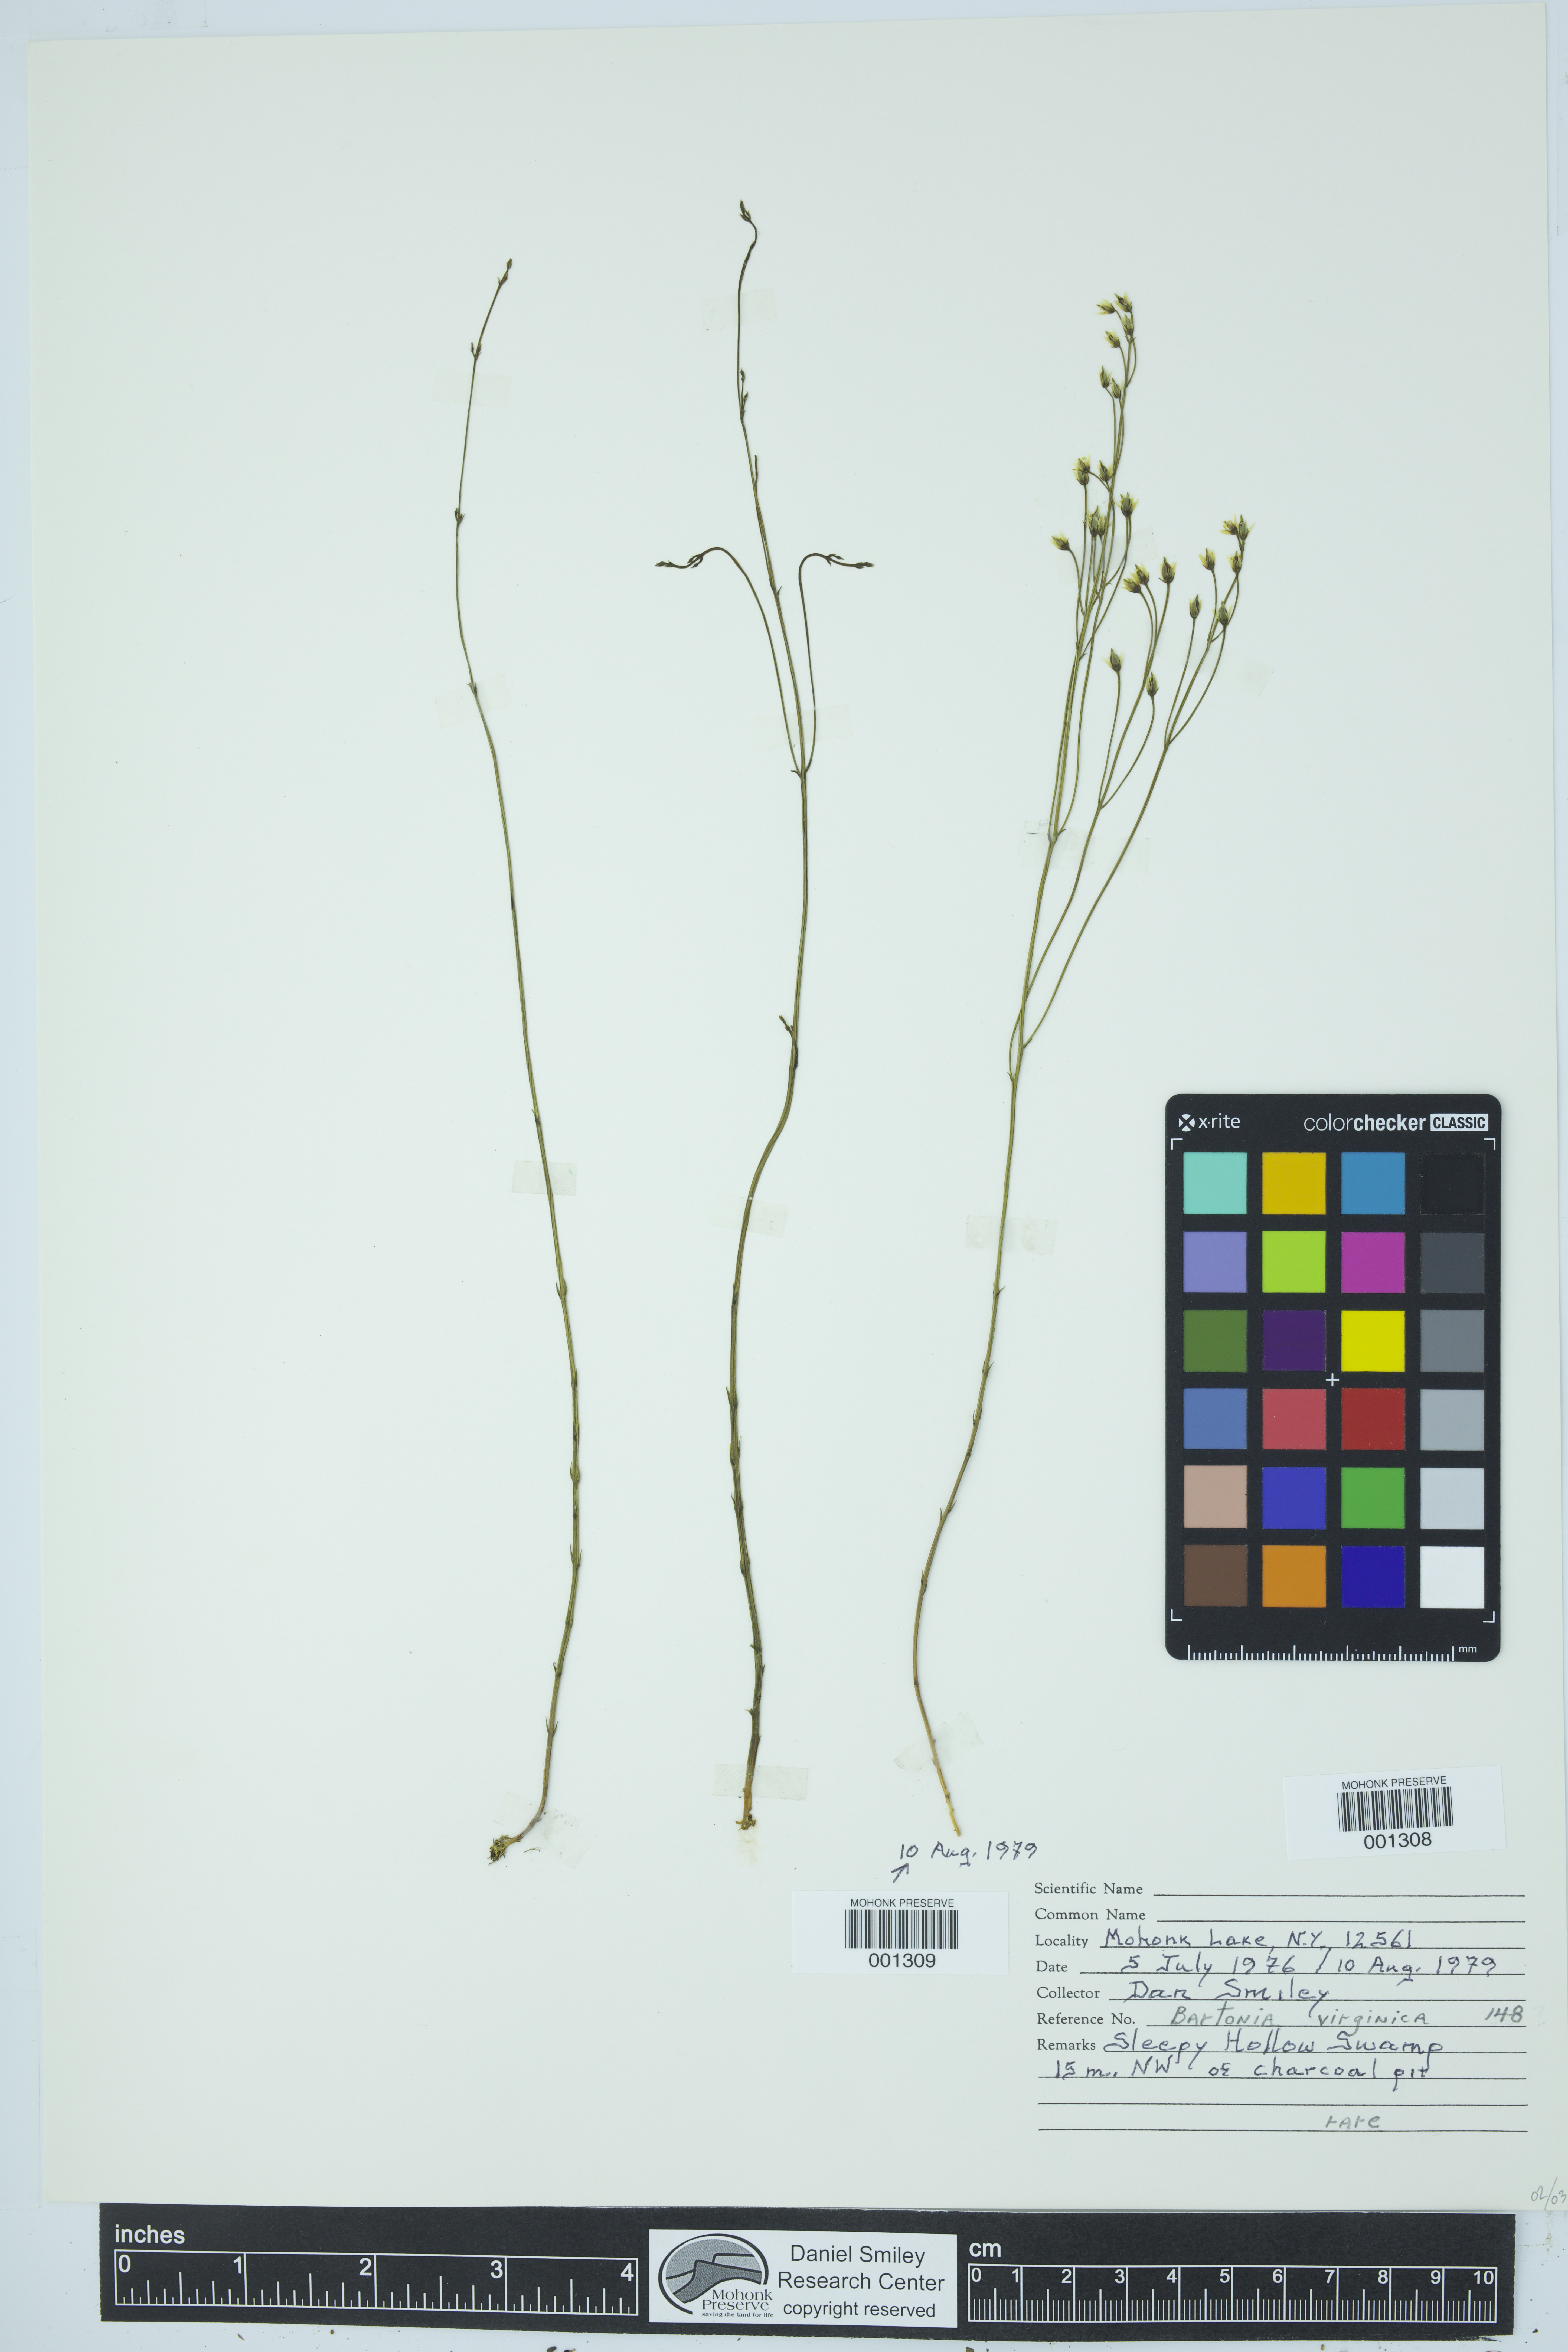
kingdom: Plantae
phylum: Tracheophyta
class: Magnoliopsida
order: Gentianales
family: Gentianaceae
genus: Bartonia
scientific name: Bartonia virginica
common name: Yellow bartonia
